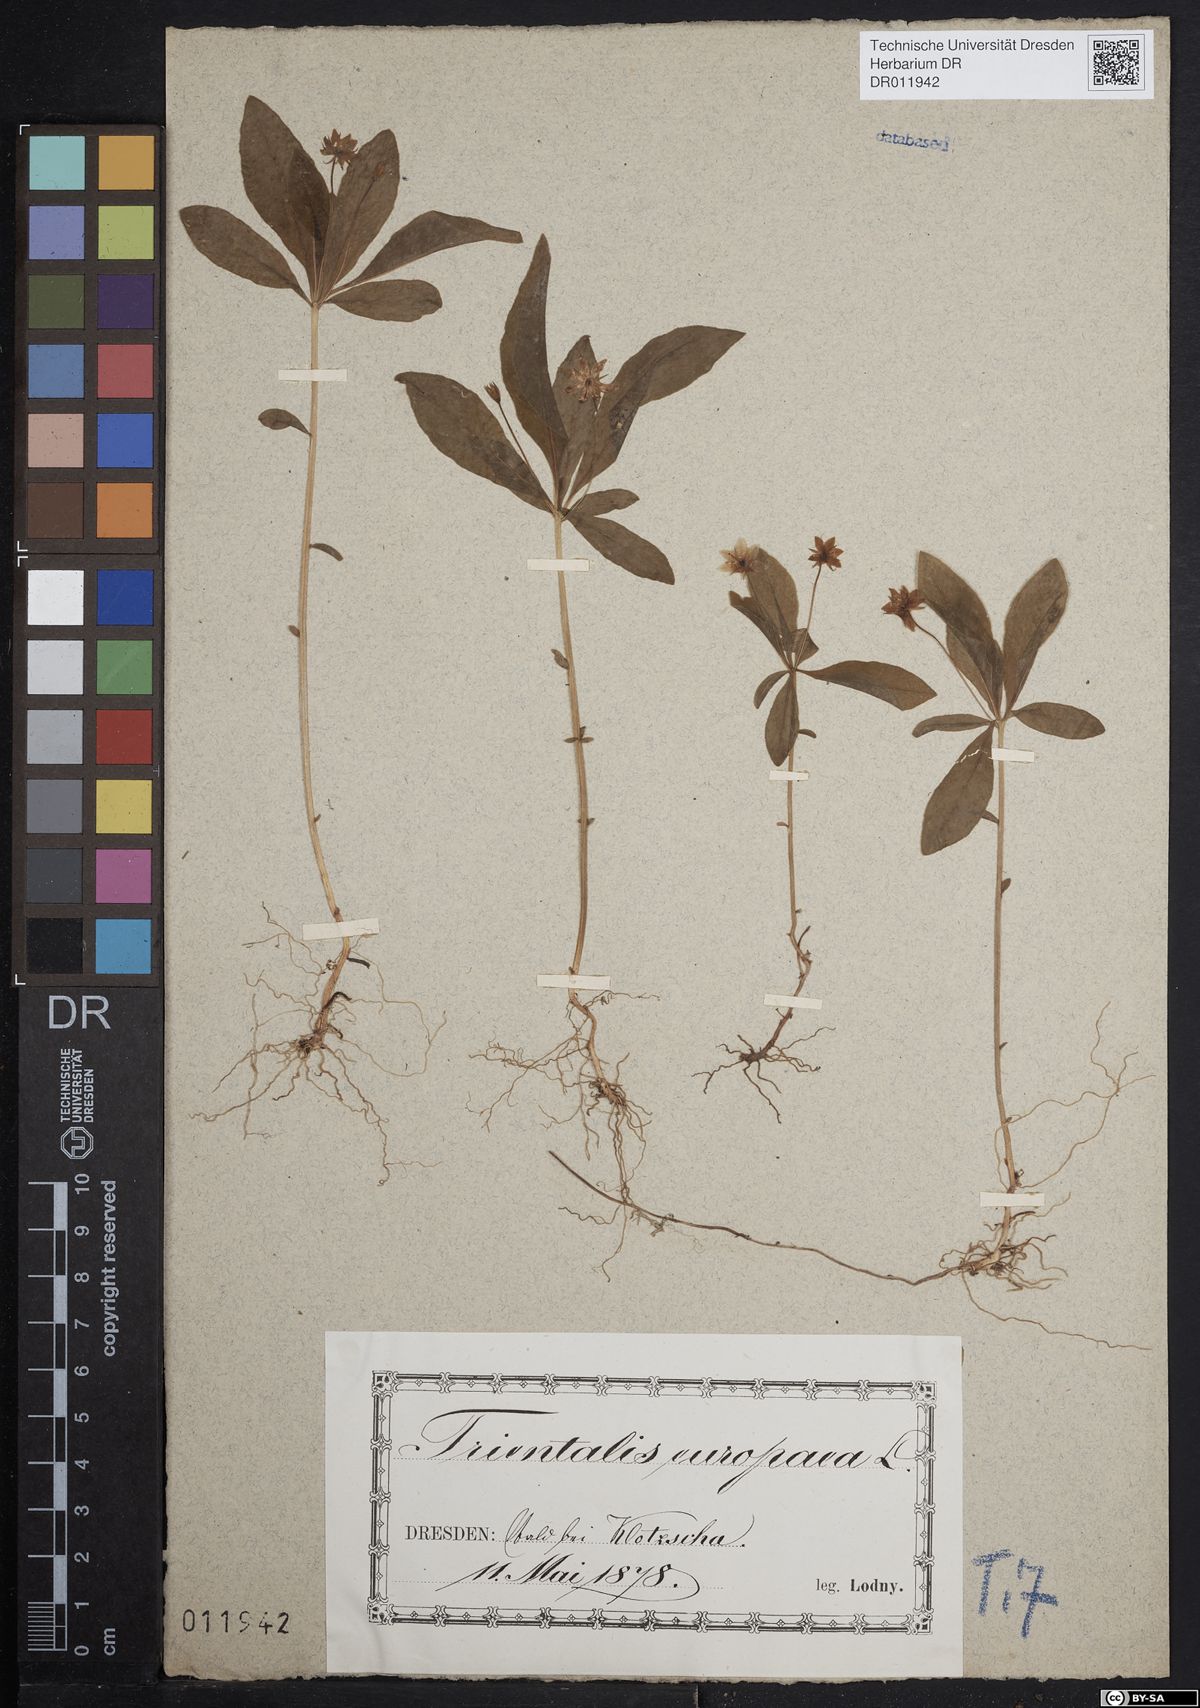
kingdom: Plantae
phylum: Tracheophyta
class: Magnoliopsida
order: Ericales
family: Primulaceae
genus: Lysimachia
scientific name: Lysimachia europaea
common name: Arctic starflower
